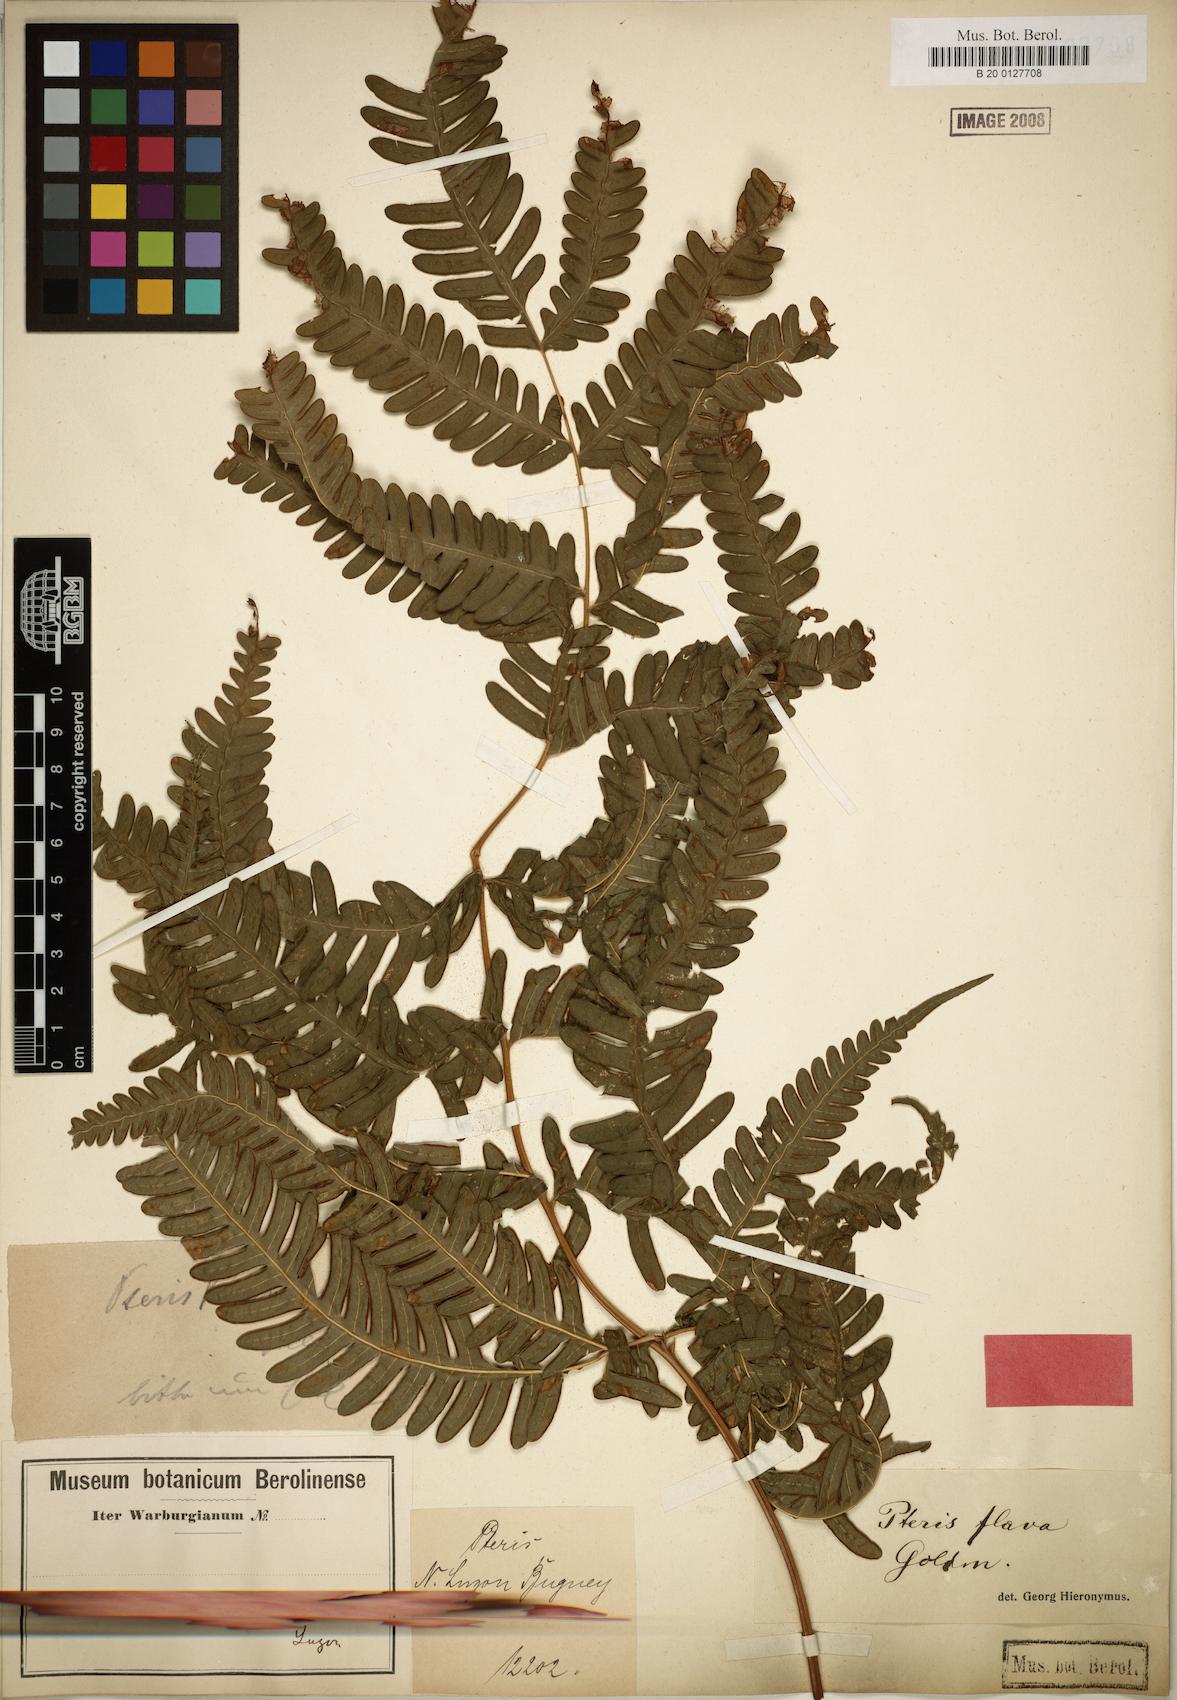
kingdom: Plantae
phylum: Tracheophyta
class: Polypodiopsida
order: Polypodiales
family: Pteridaceae
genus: Pteris
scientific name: Pteris glaucovirens
